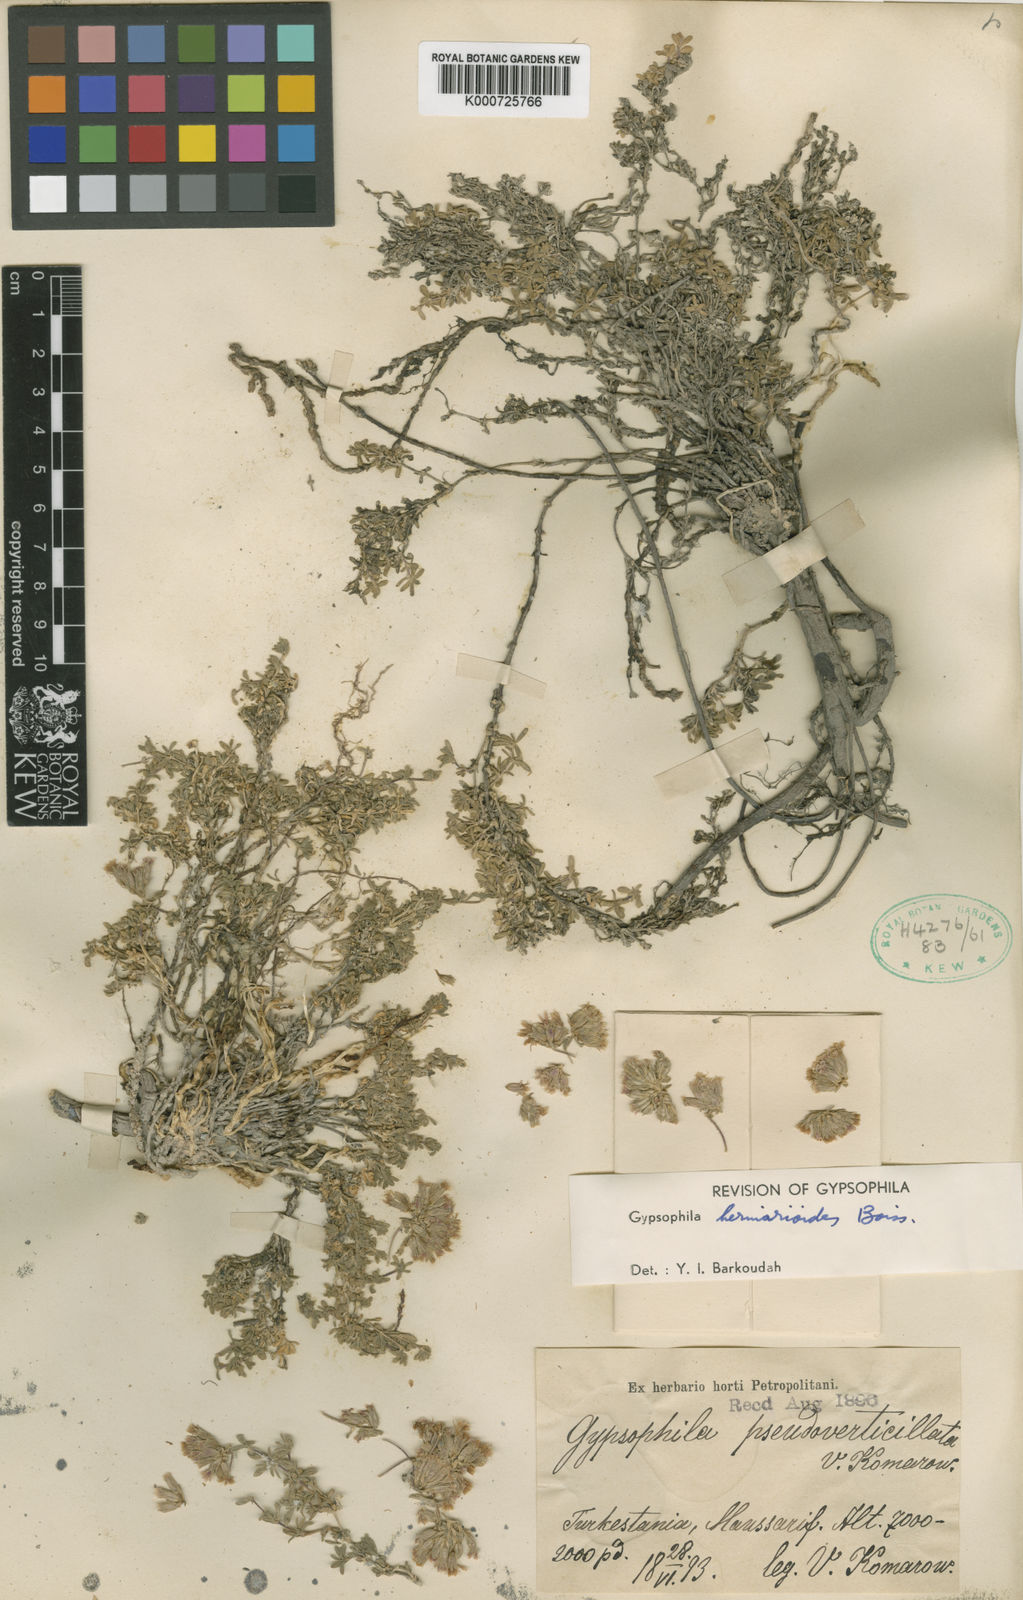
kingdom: Plantae
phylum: Tracheophyta
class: Magnoliopsida
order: Caryophyllales
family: Caryophyllaceae
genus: Acanthophyllum
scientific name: Acanthophyllum herniarioides
